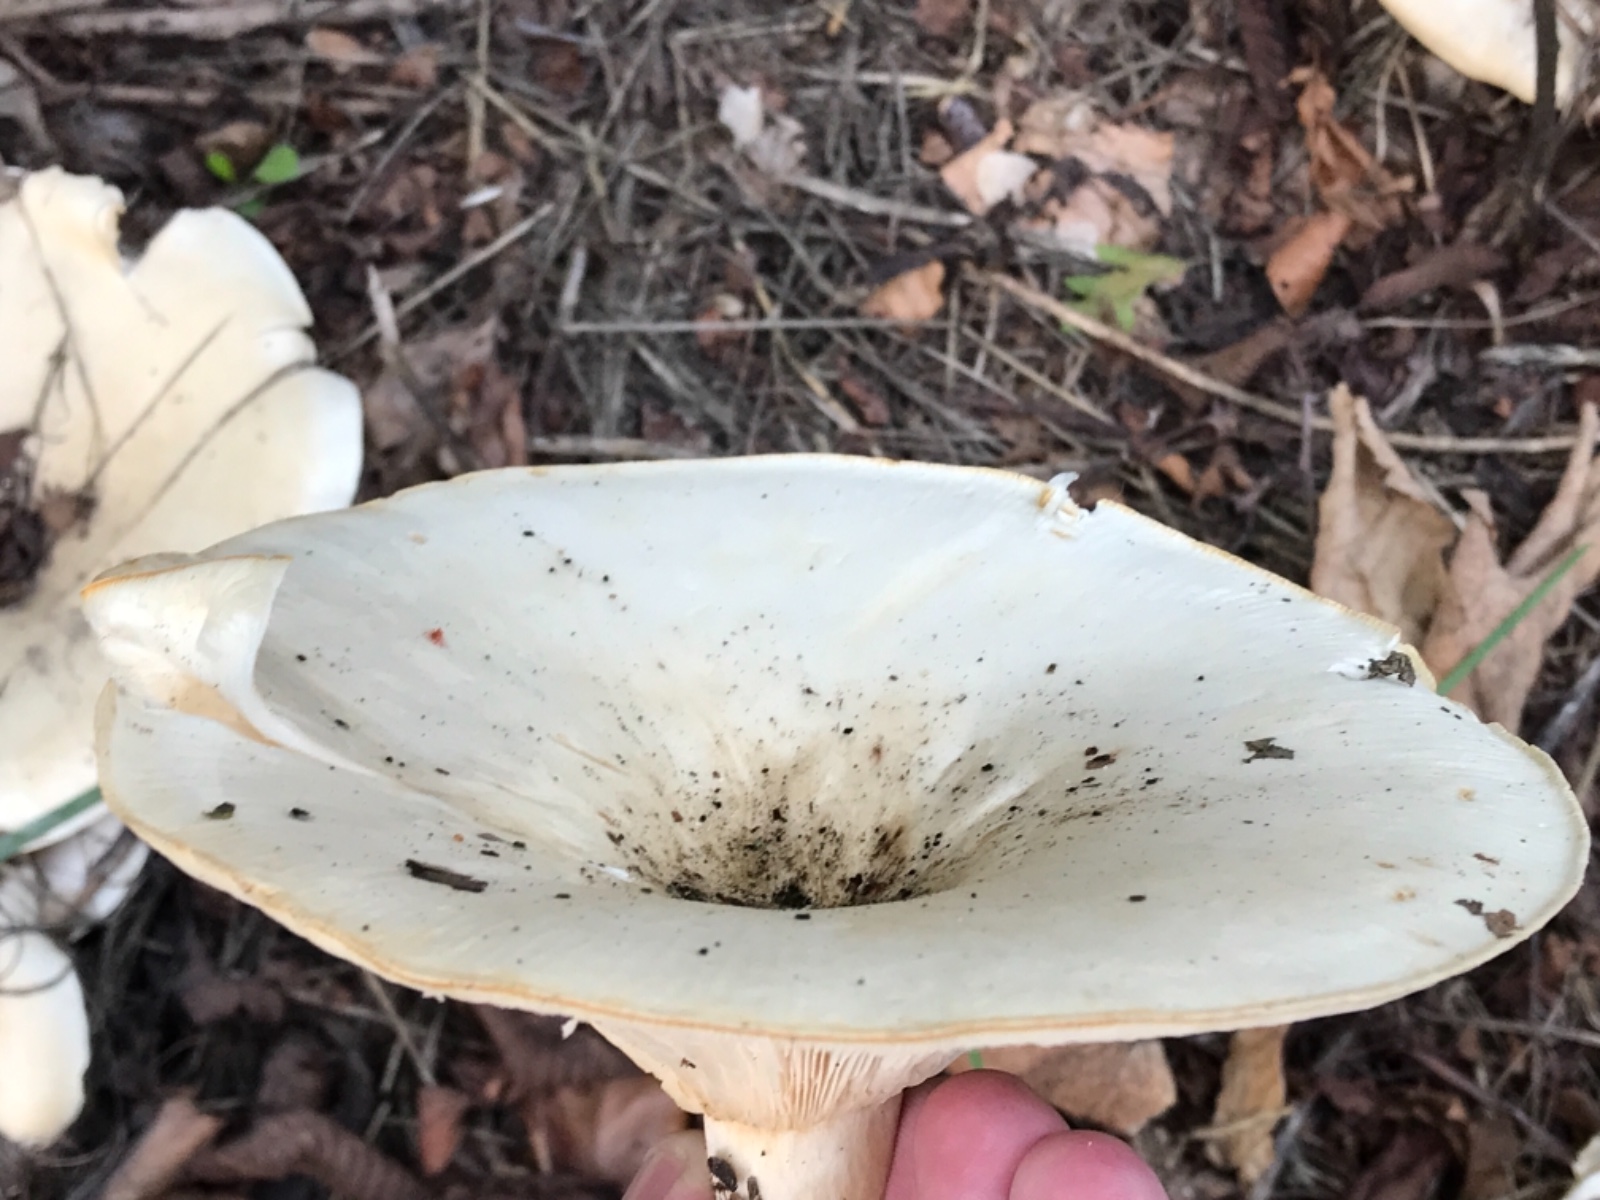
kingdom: Fungi
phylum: Basidiomycota
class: Agaricomycetes
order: Agaricales
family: Tricholomataceae
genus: Aspropaxillus
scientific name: Aspropaxillus giganteus
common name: kæmpe-tragtridderhat
